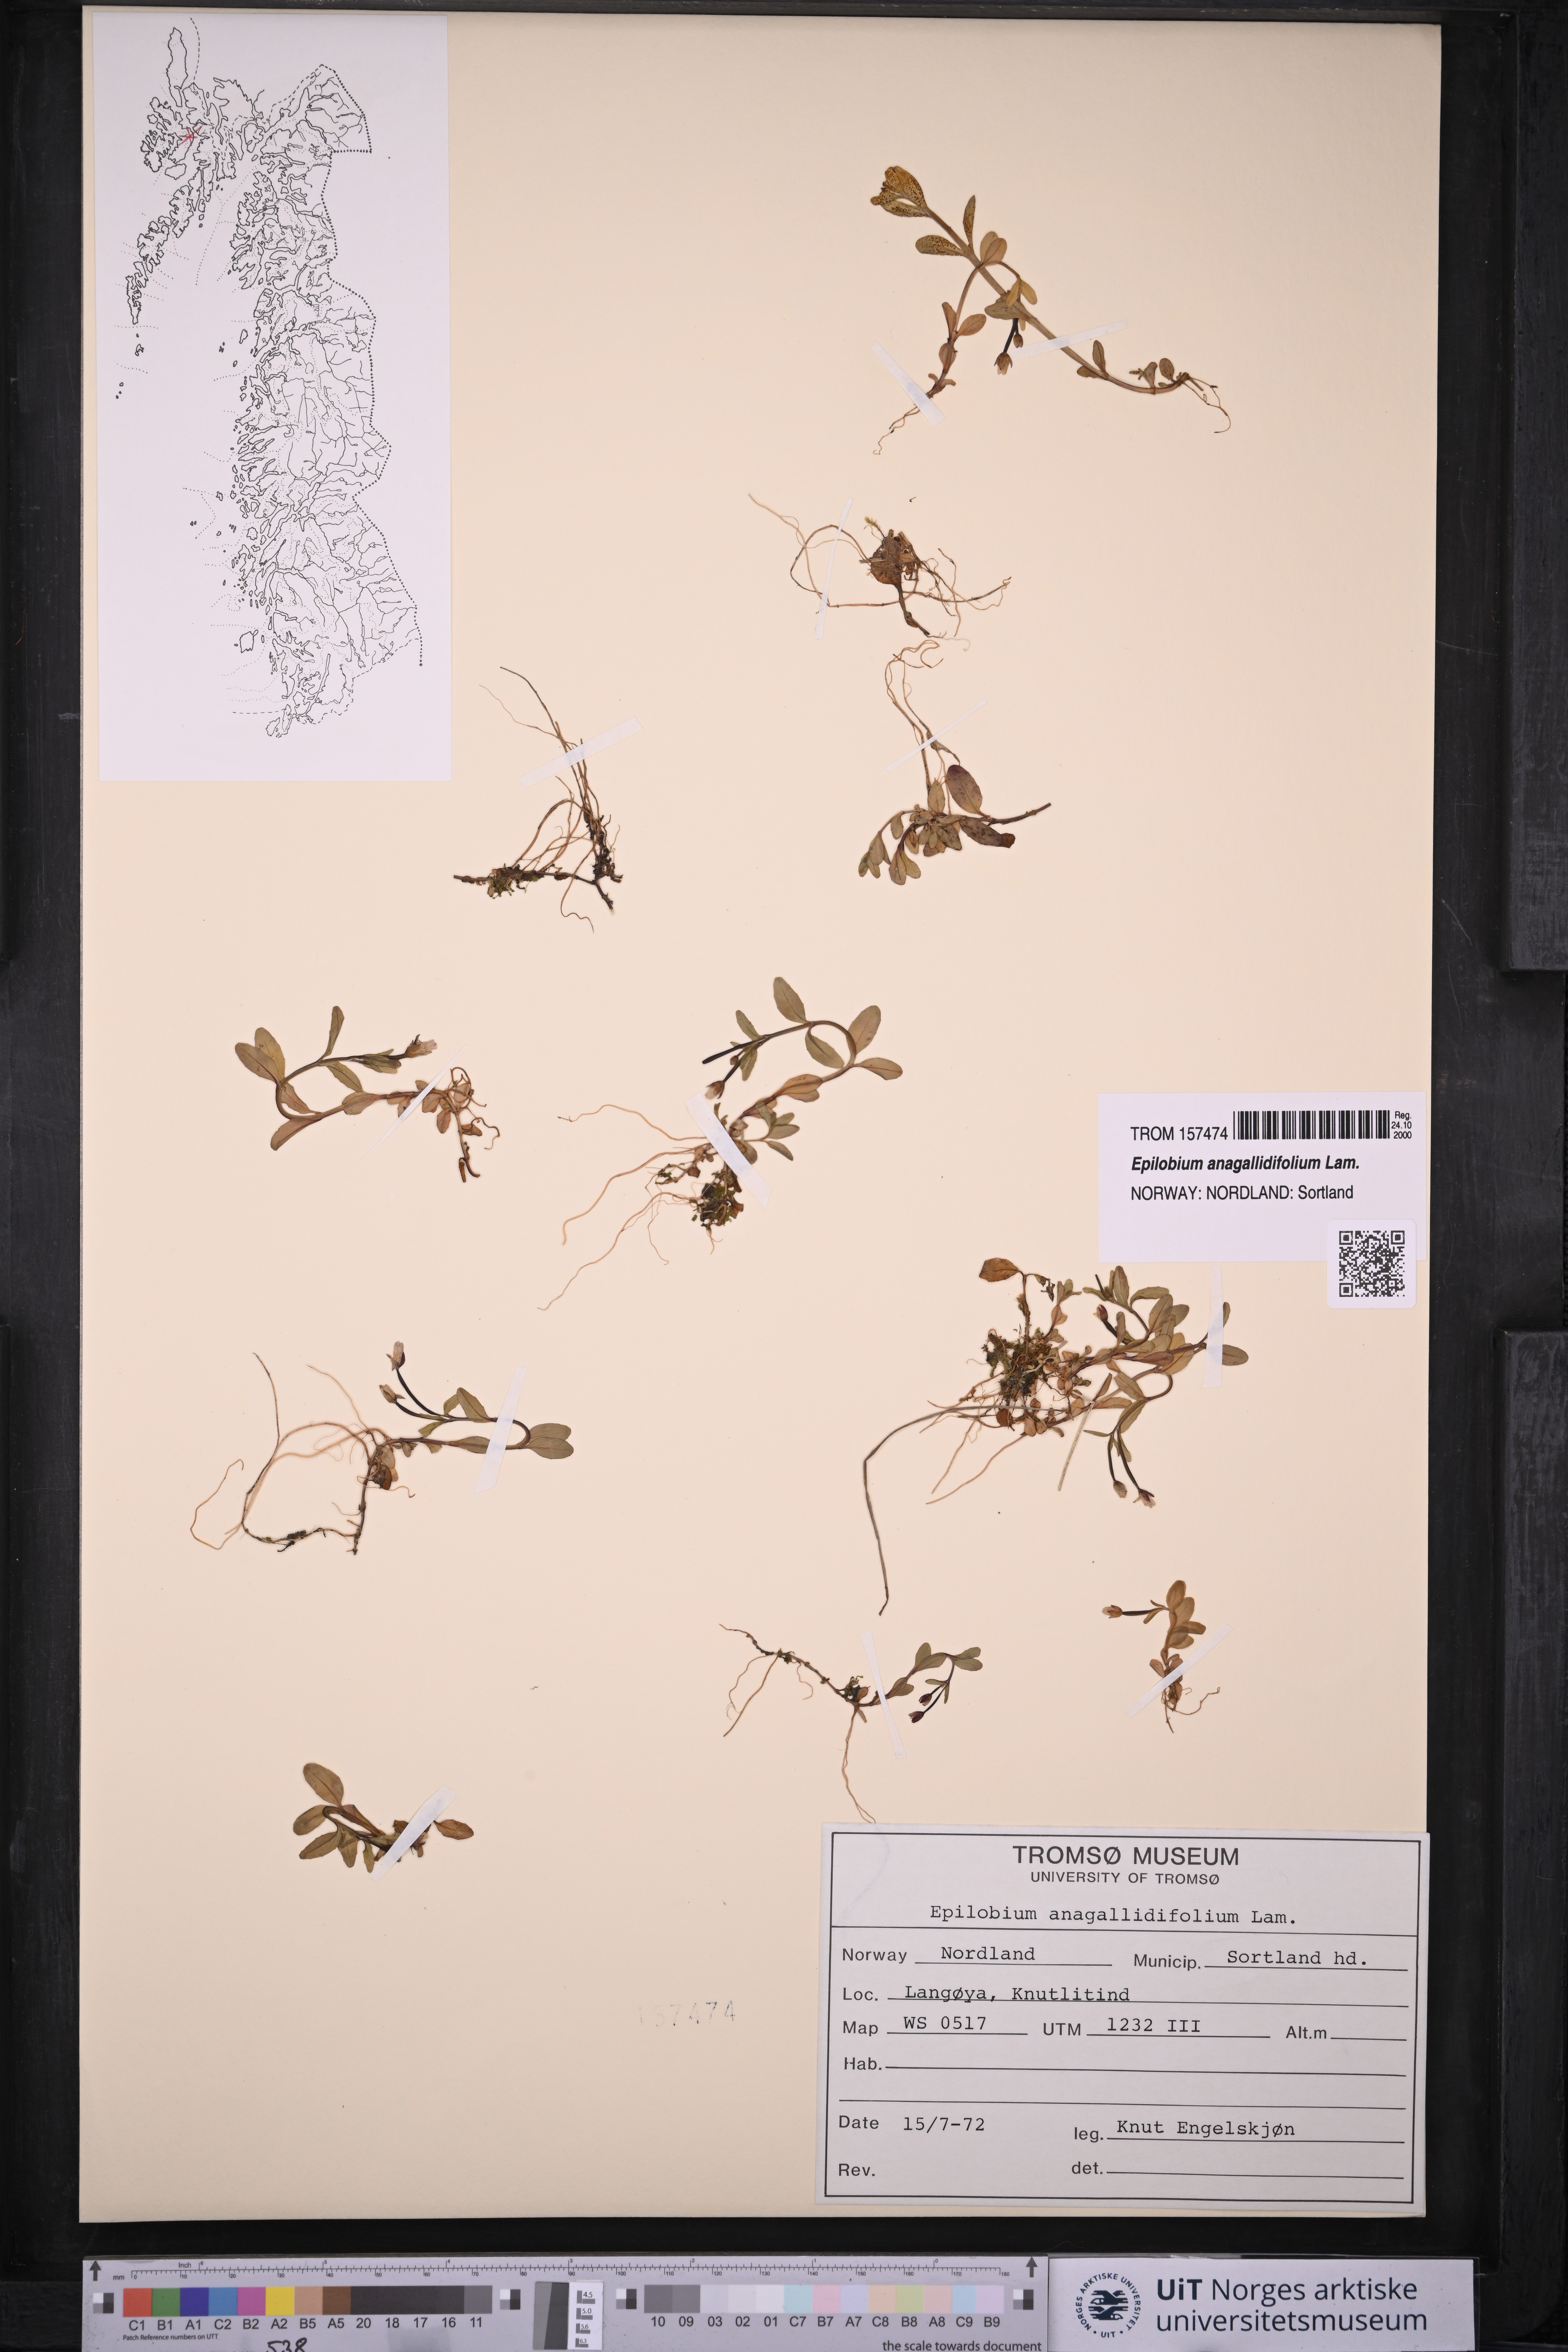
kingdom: Plantae
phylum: Tracheophyta
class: Magnoliopsida
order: Myrtales
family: Onagraceae
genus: Epilobium
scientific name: Epilobium anagallidifolium
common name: Alpine willowherb
